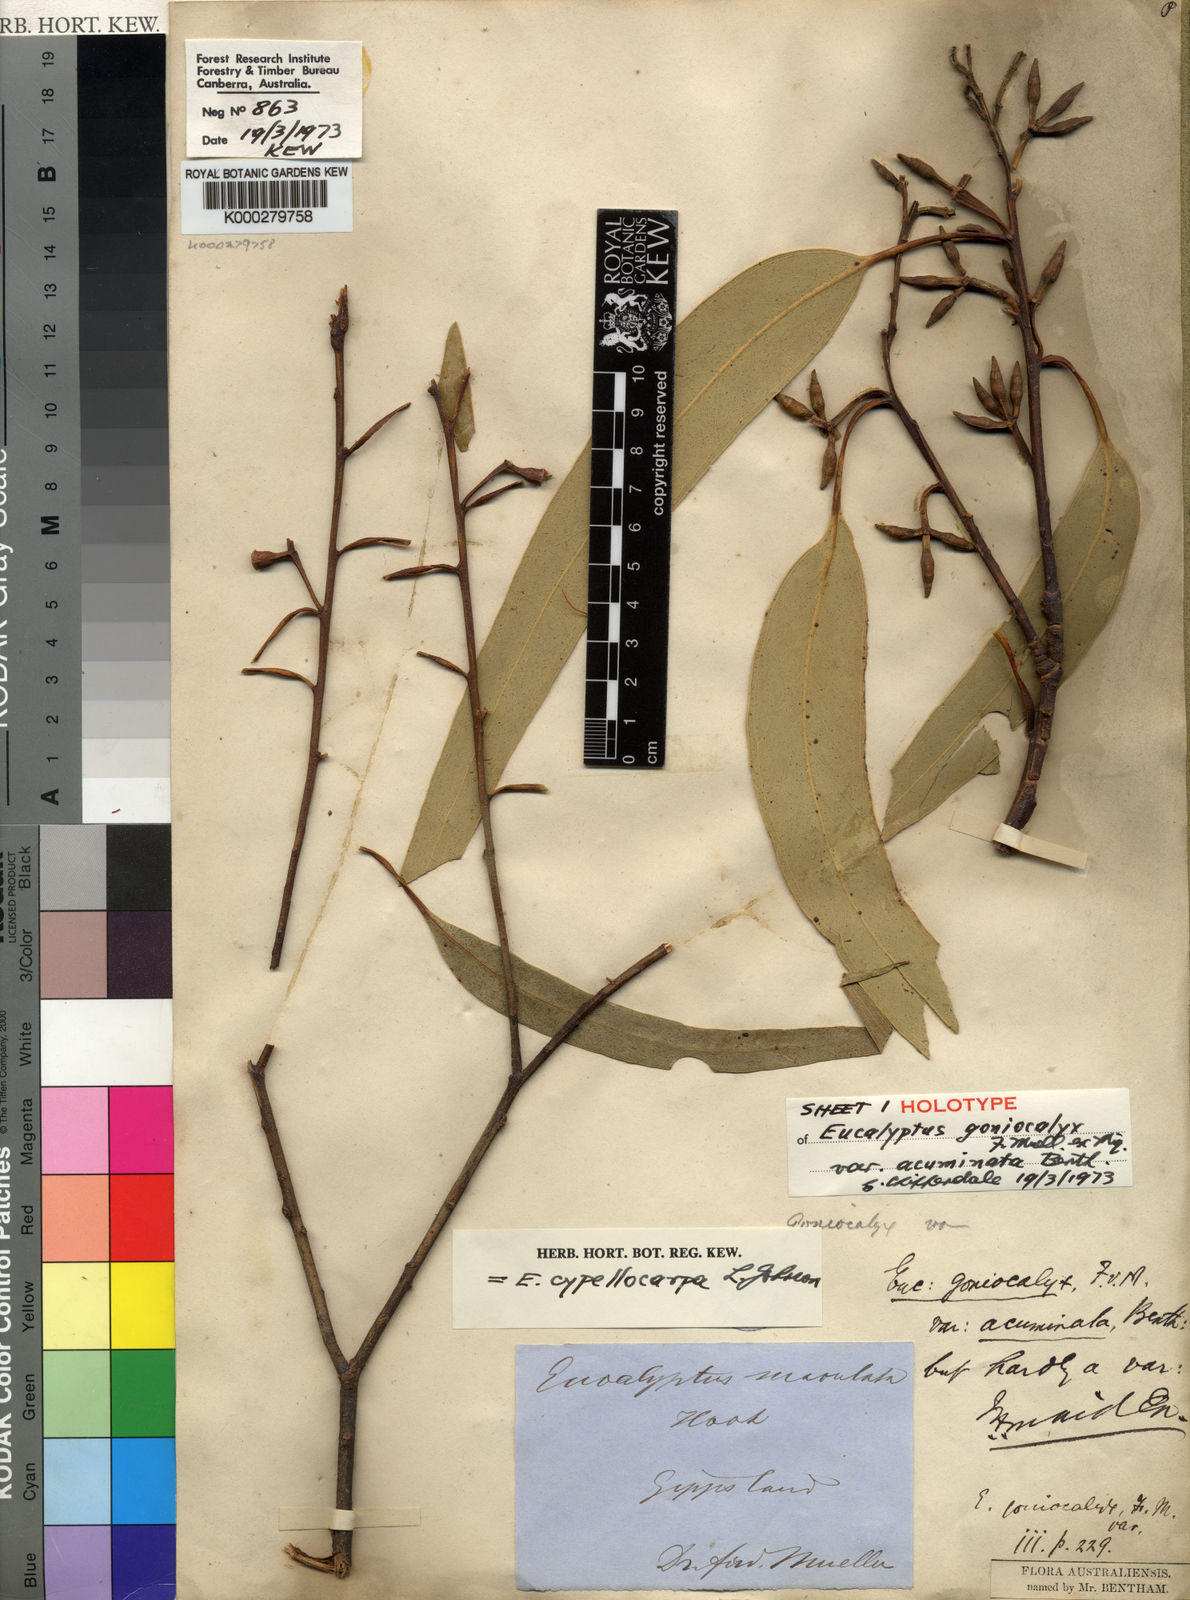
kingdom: Plantae
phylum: Tracheophyta
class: Magnoliopsida
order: Myrtales
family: Myrtaceae
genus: Eucalyptus
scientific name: Eucalyptus goniocalyx
